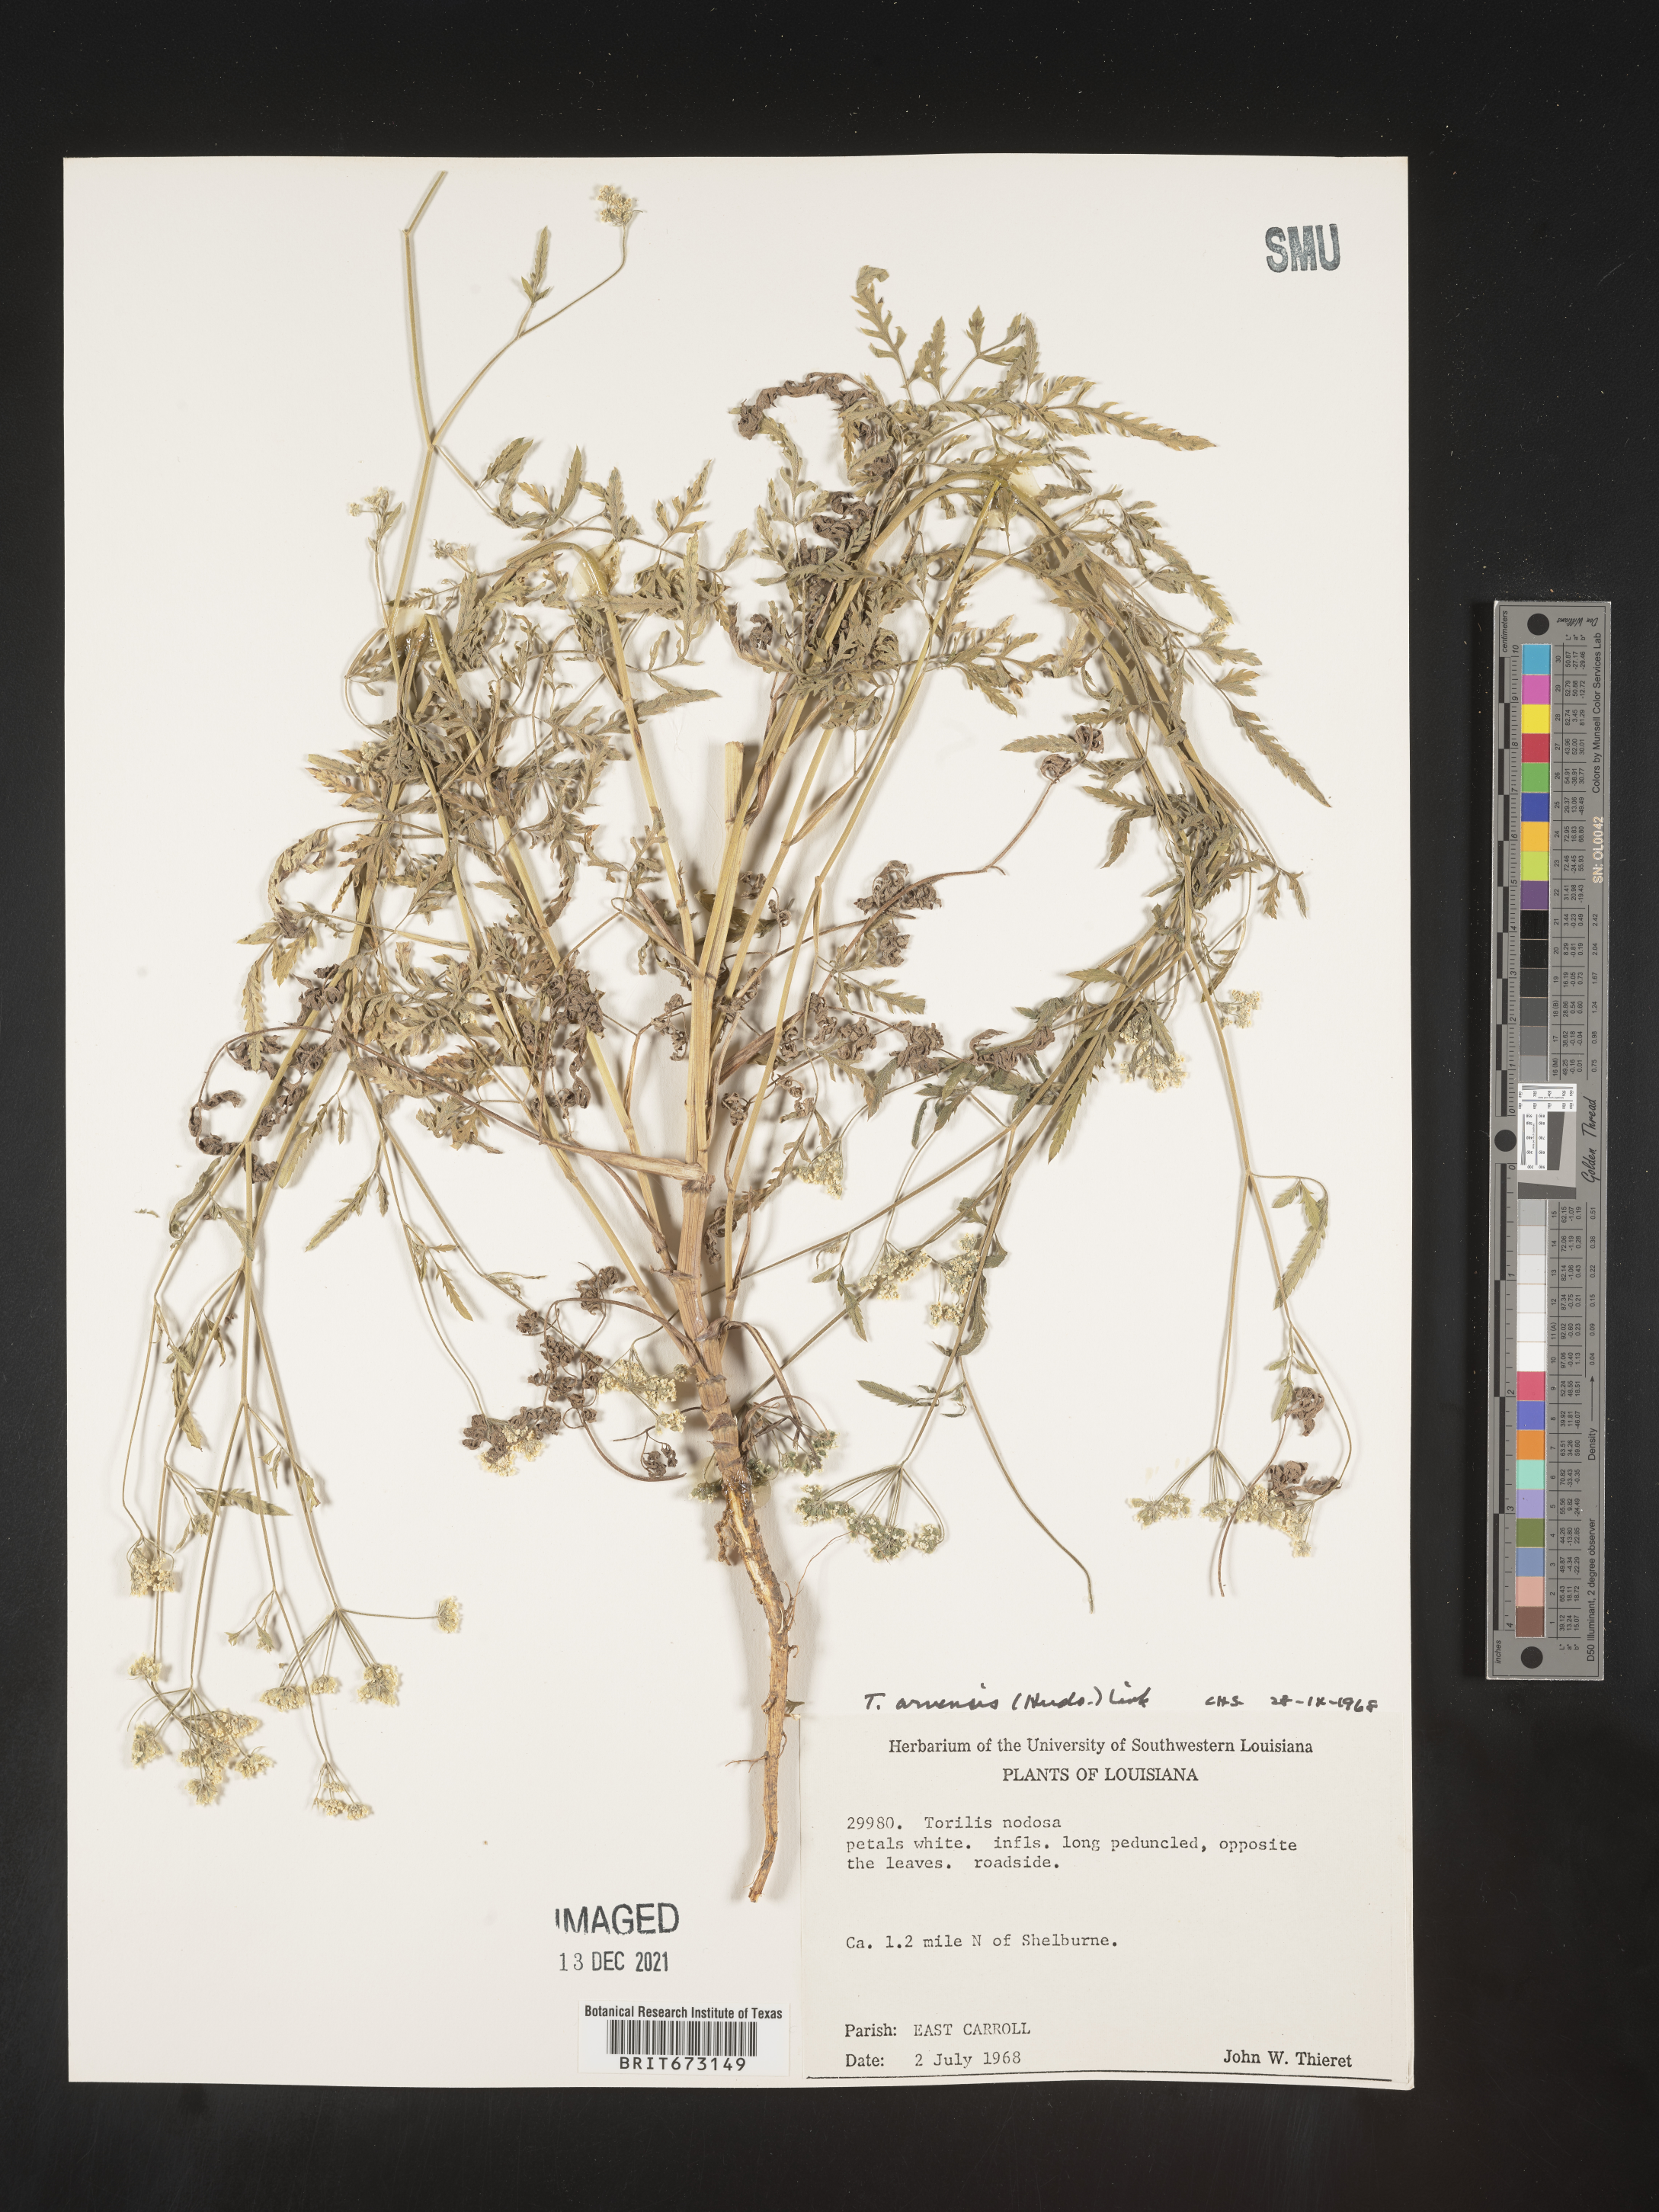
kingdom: Plantae
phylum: Tracheophyta
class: Magnoliopsida
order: Apiales
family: Apiaceae
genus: Torilis
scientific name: Torilis arvensis
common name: Spreading hedge-parsley
